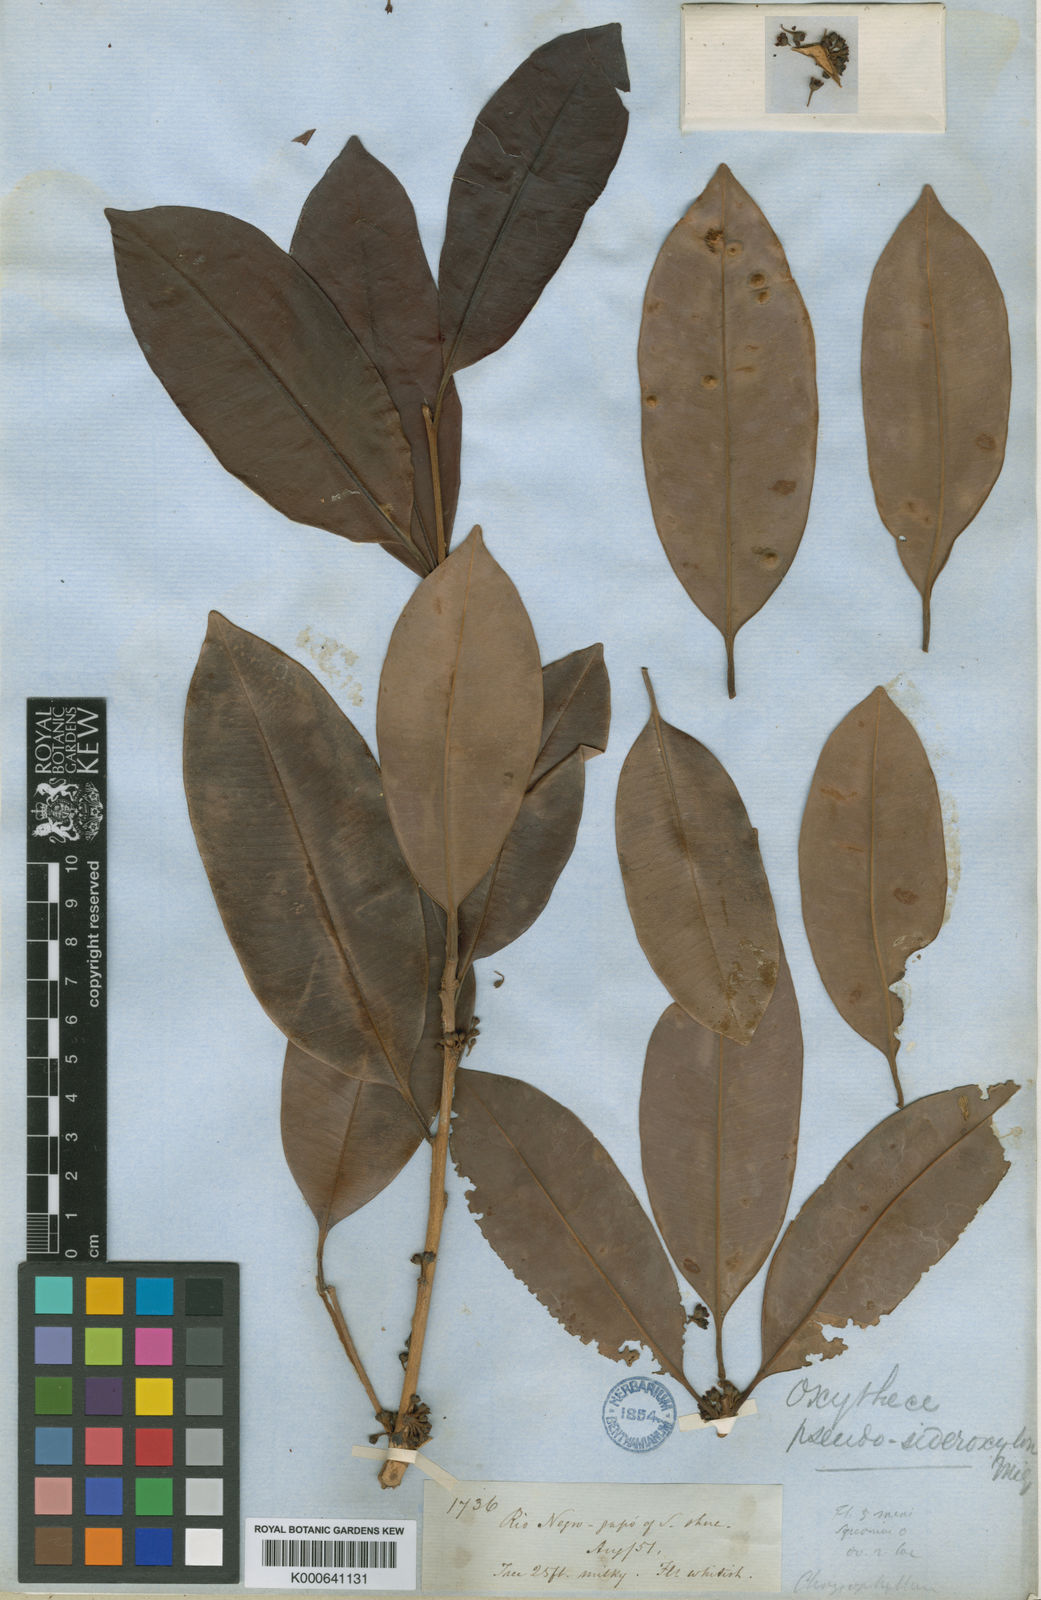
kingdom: Plantae
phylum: Tracheophyta
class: Magnoliopsida
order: Ericales
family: Sapotaceae
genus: Pouteria
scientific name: Pouteria elegans
